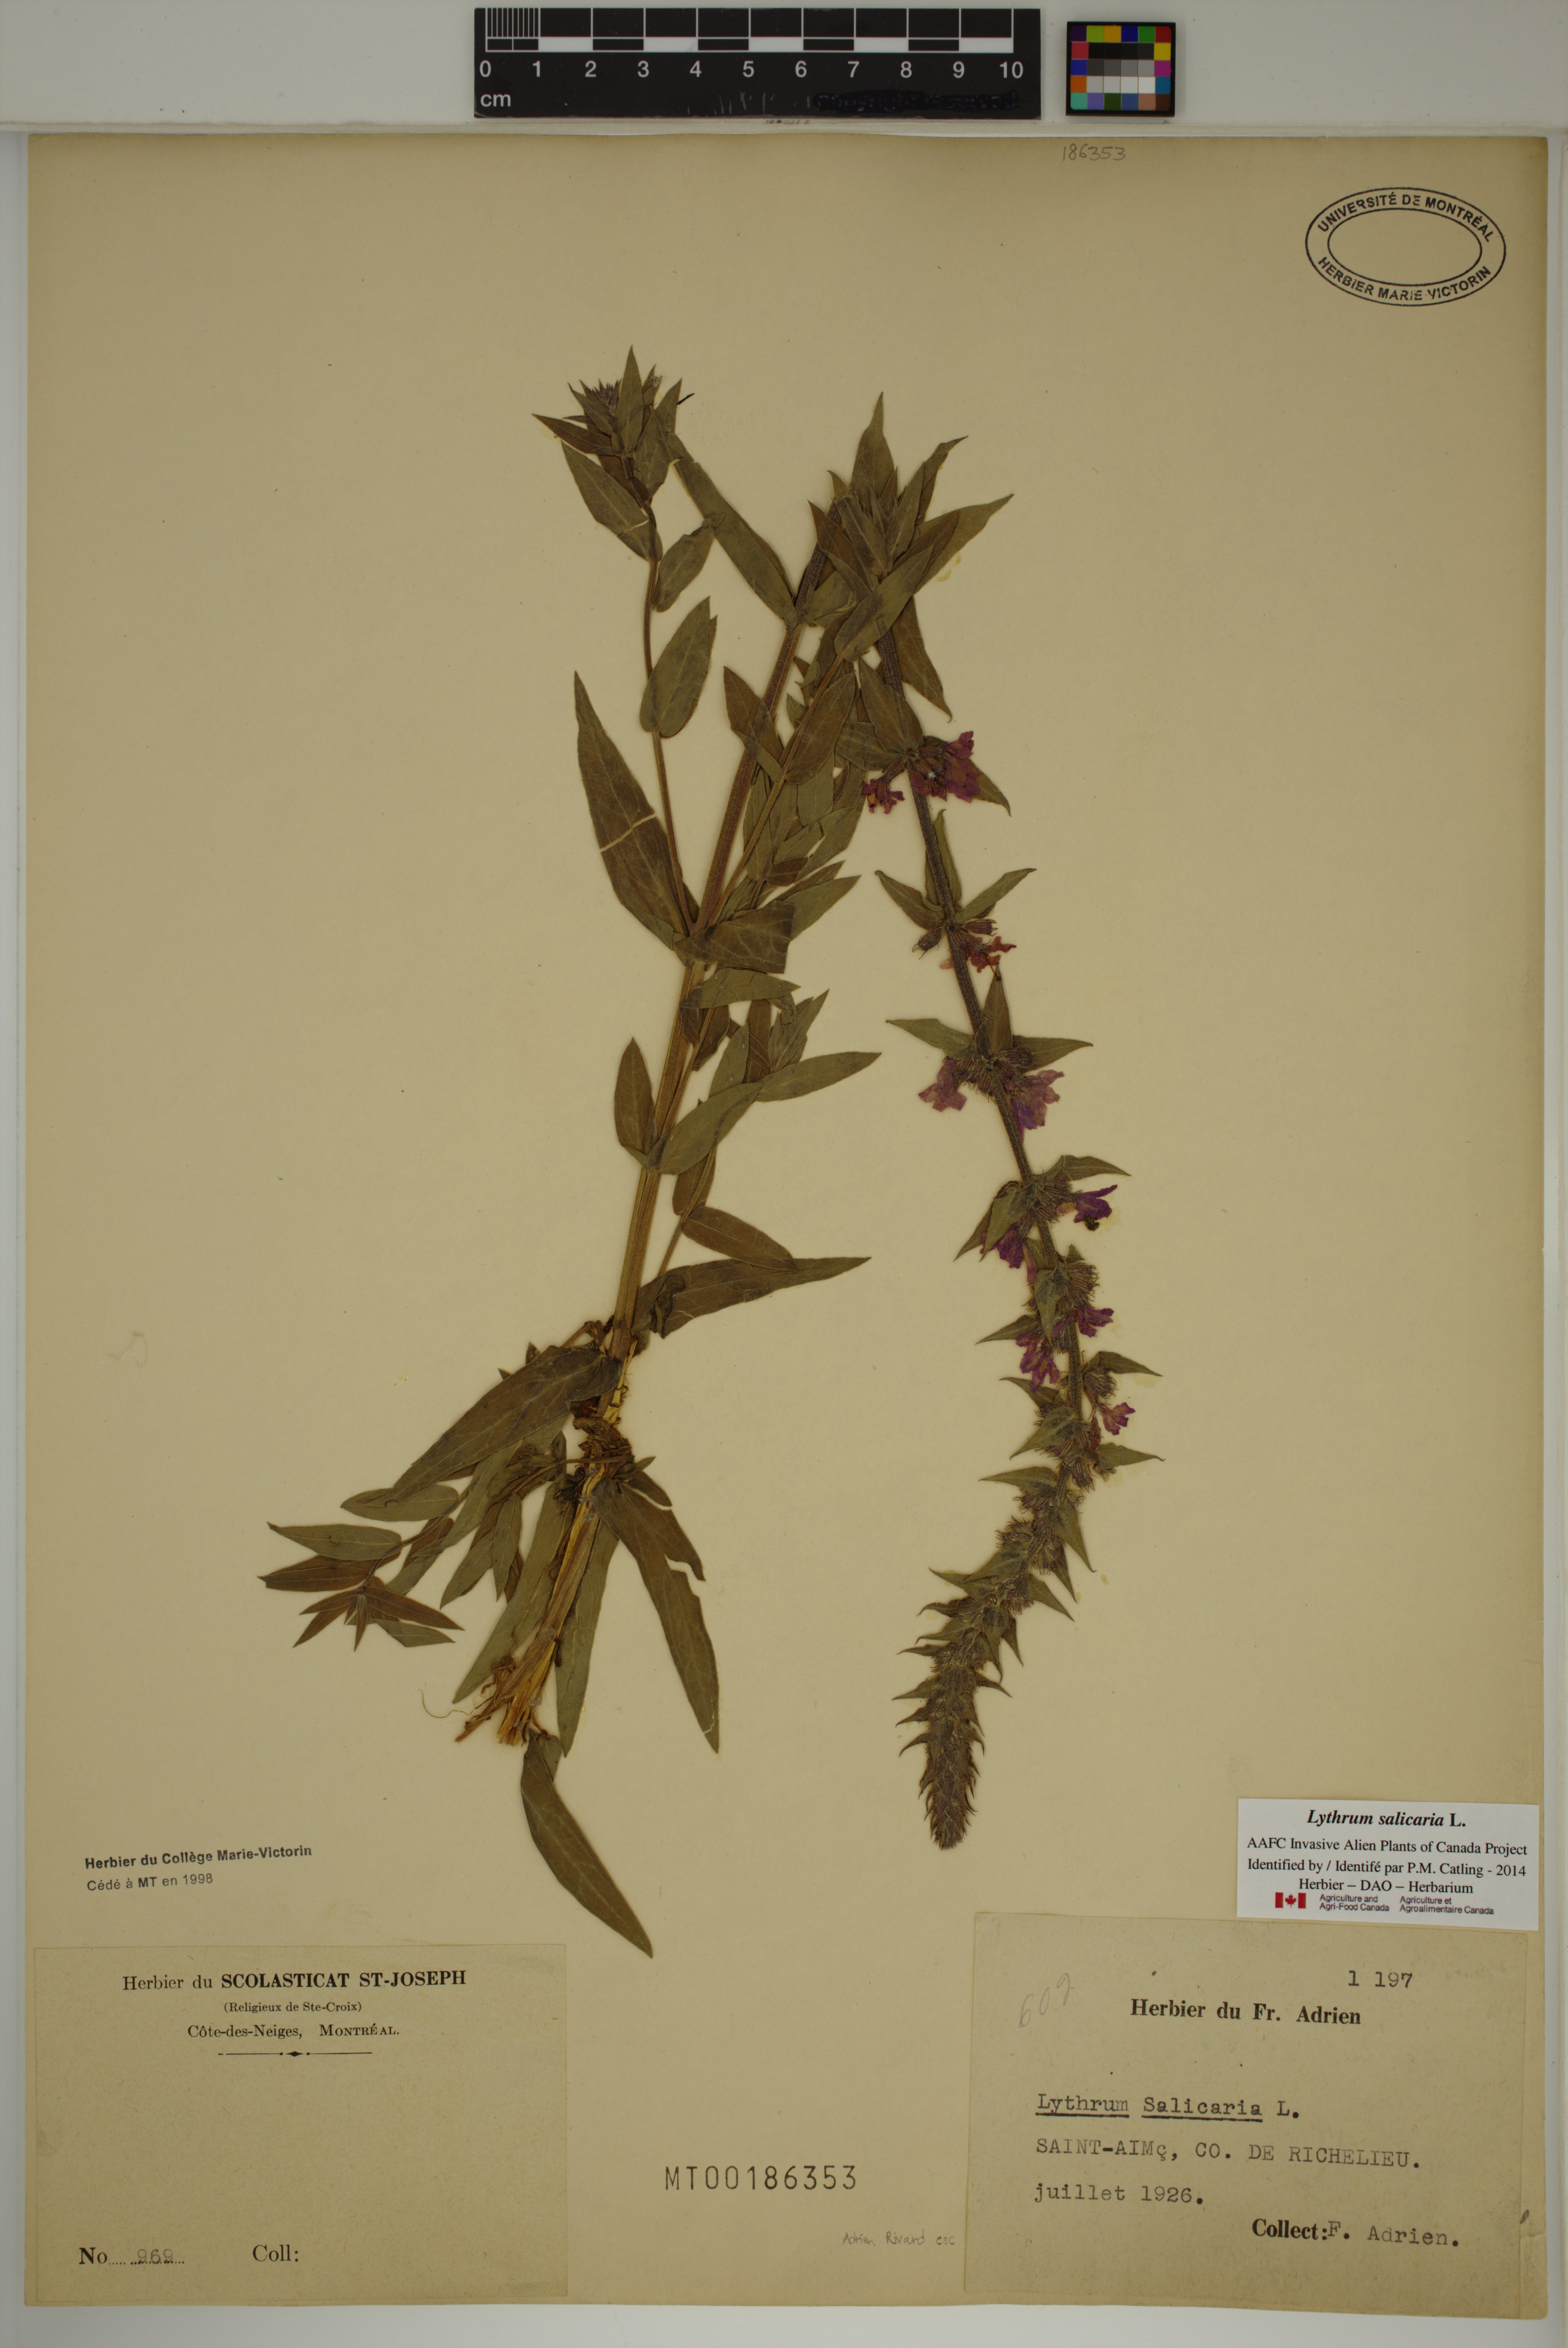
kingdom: Plantae
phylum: Tracheophyta
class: Magnoliopsida
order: Myrtales
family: Lythraceae
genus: Lythrum
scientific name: Lythrum salicaria
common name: Purple loosestrife
